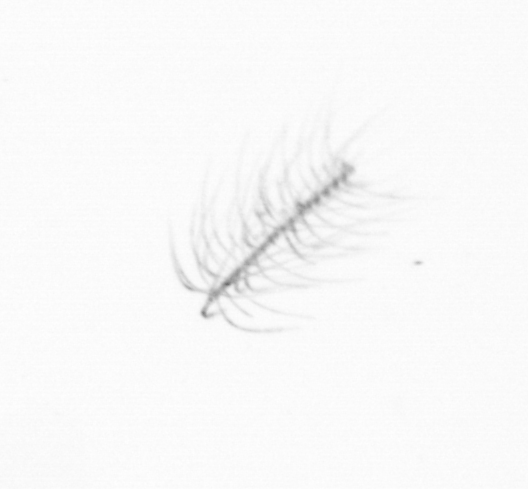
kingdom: Chromista
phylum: Ochrophyta
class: Bacillariophyceae
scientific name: Bacillariophyceae
